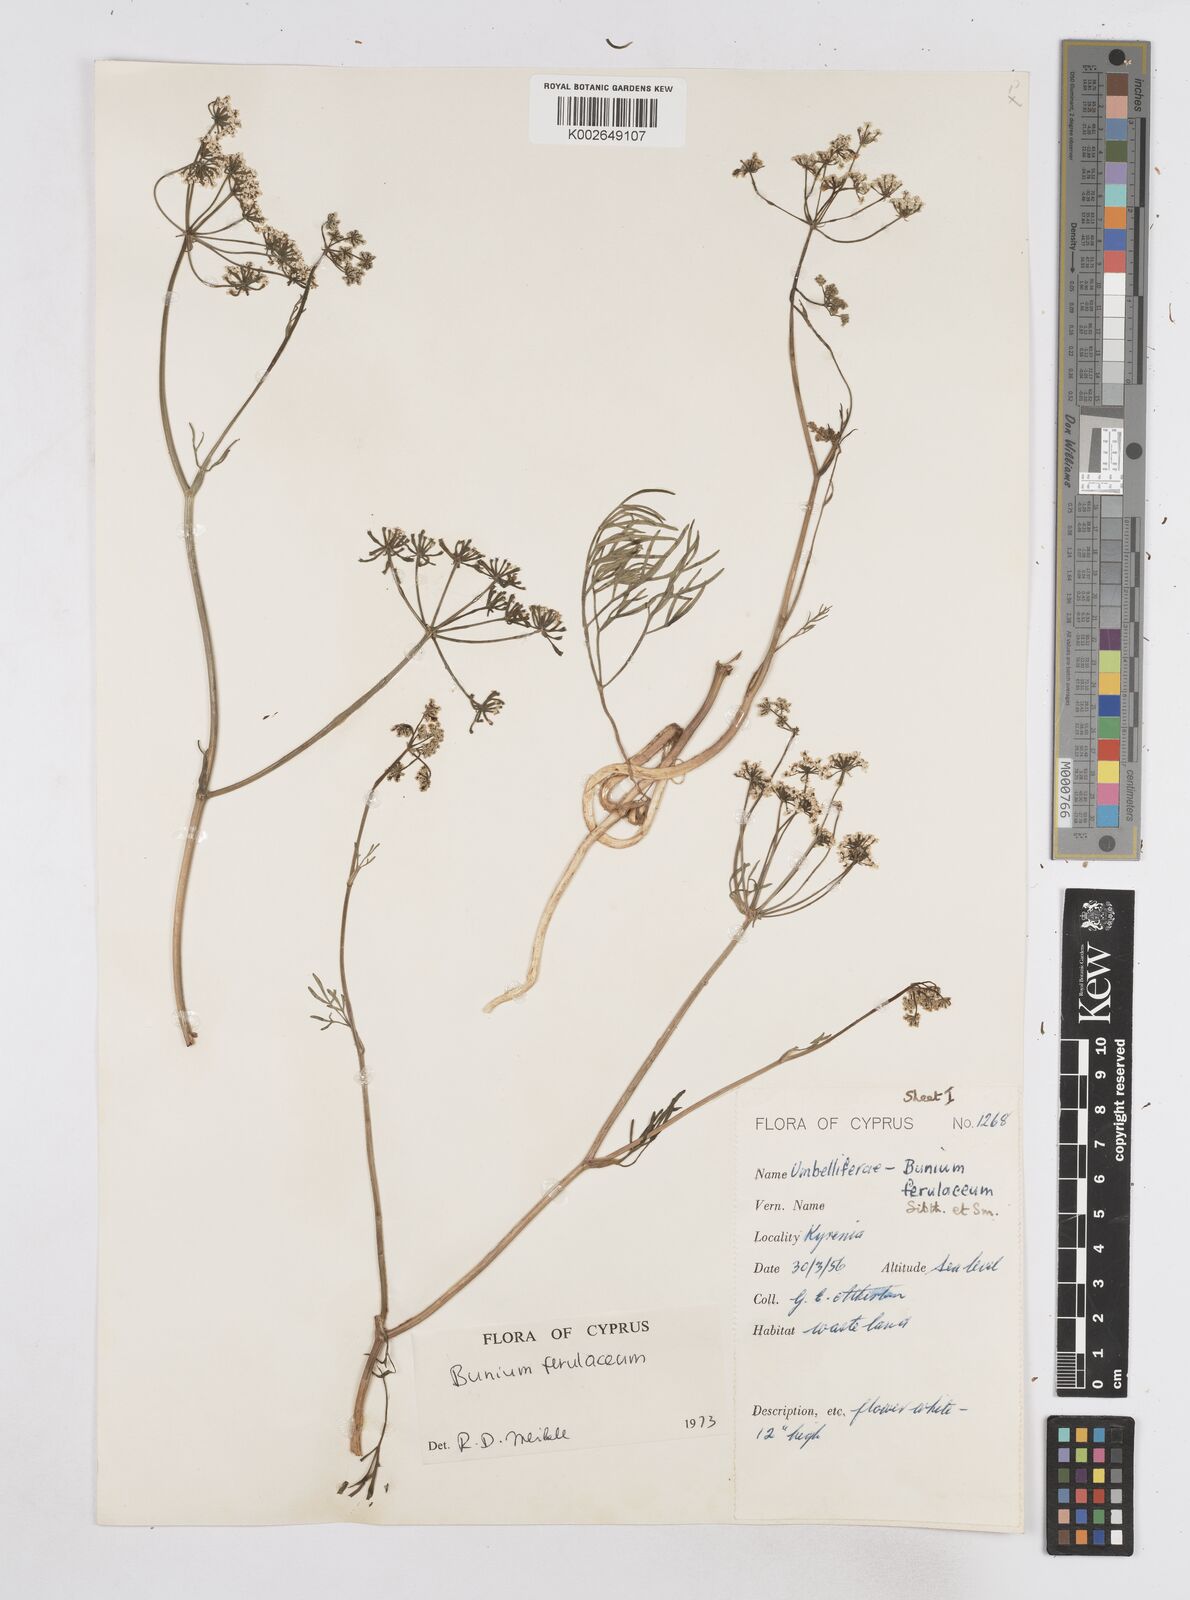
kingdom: Plantae
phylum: Tracheophyta
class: Magnoliopsida
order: Apiales
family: Apiaceae
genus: Bunium
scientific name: Bunium ferulaceum
